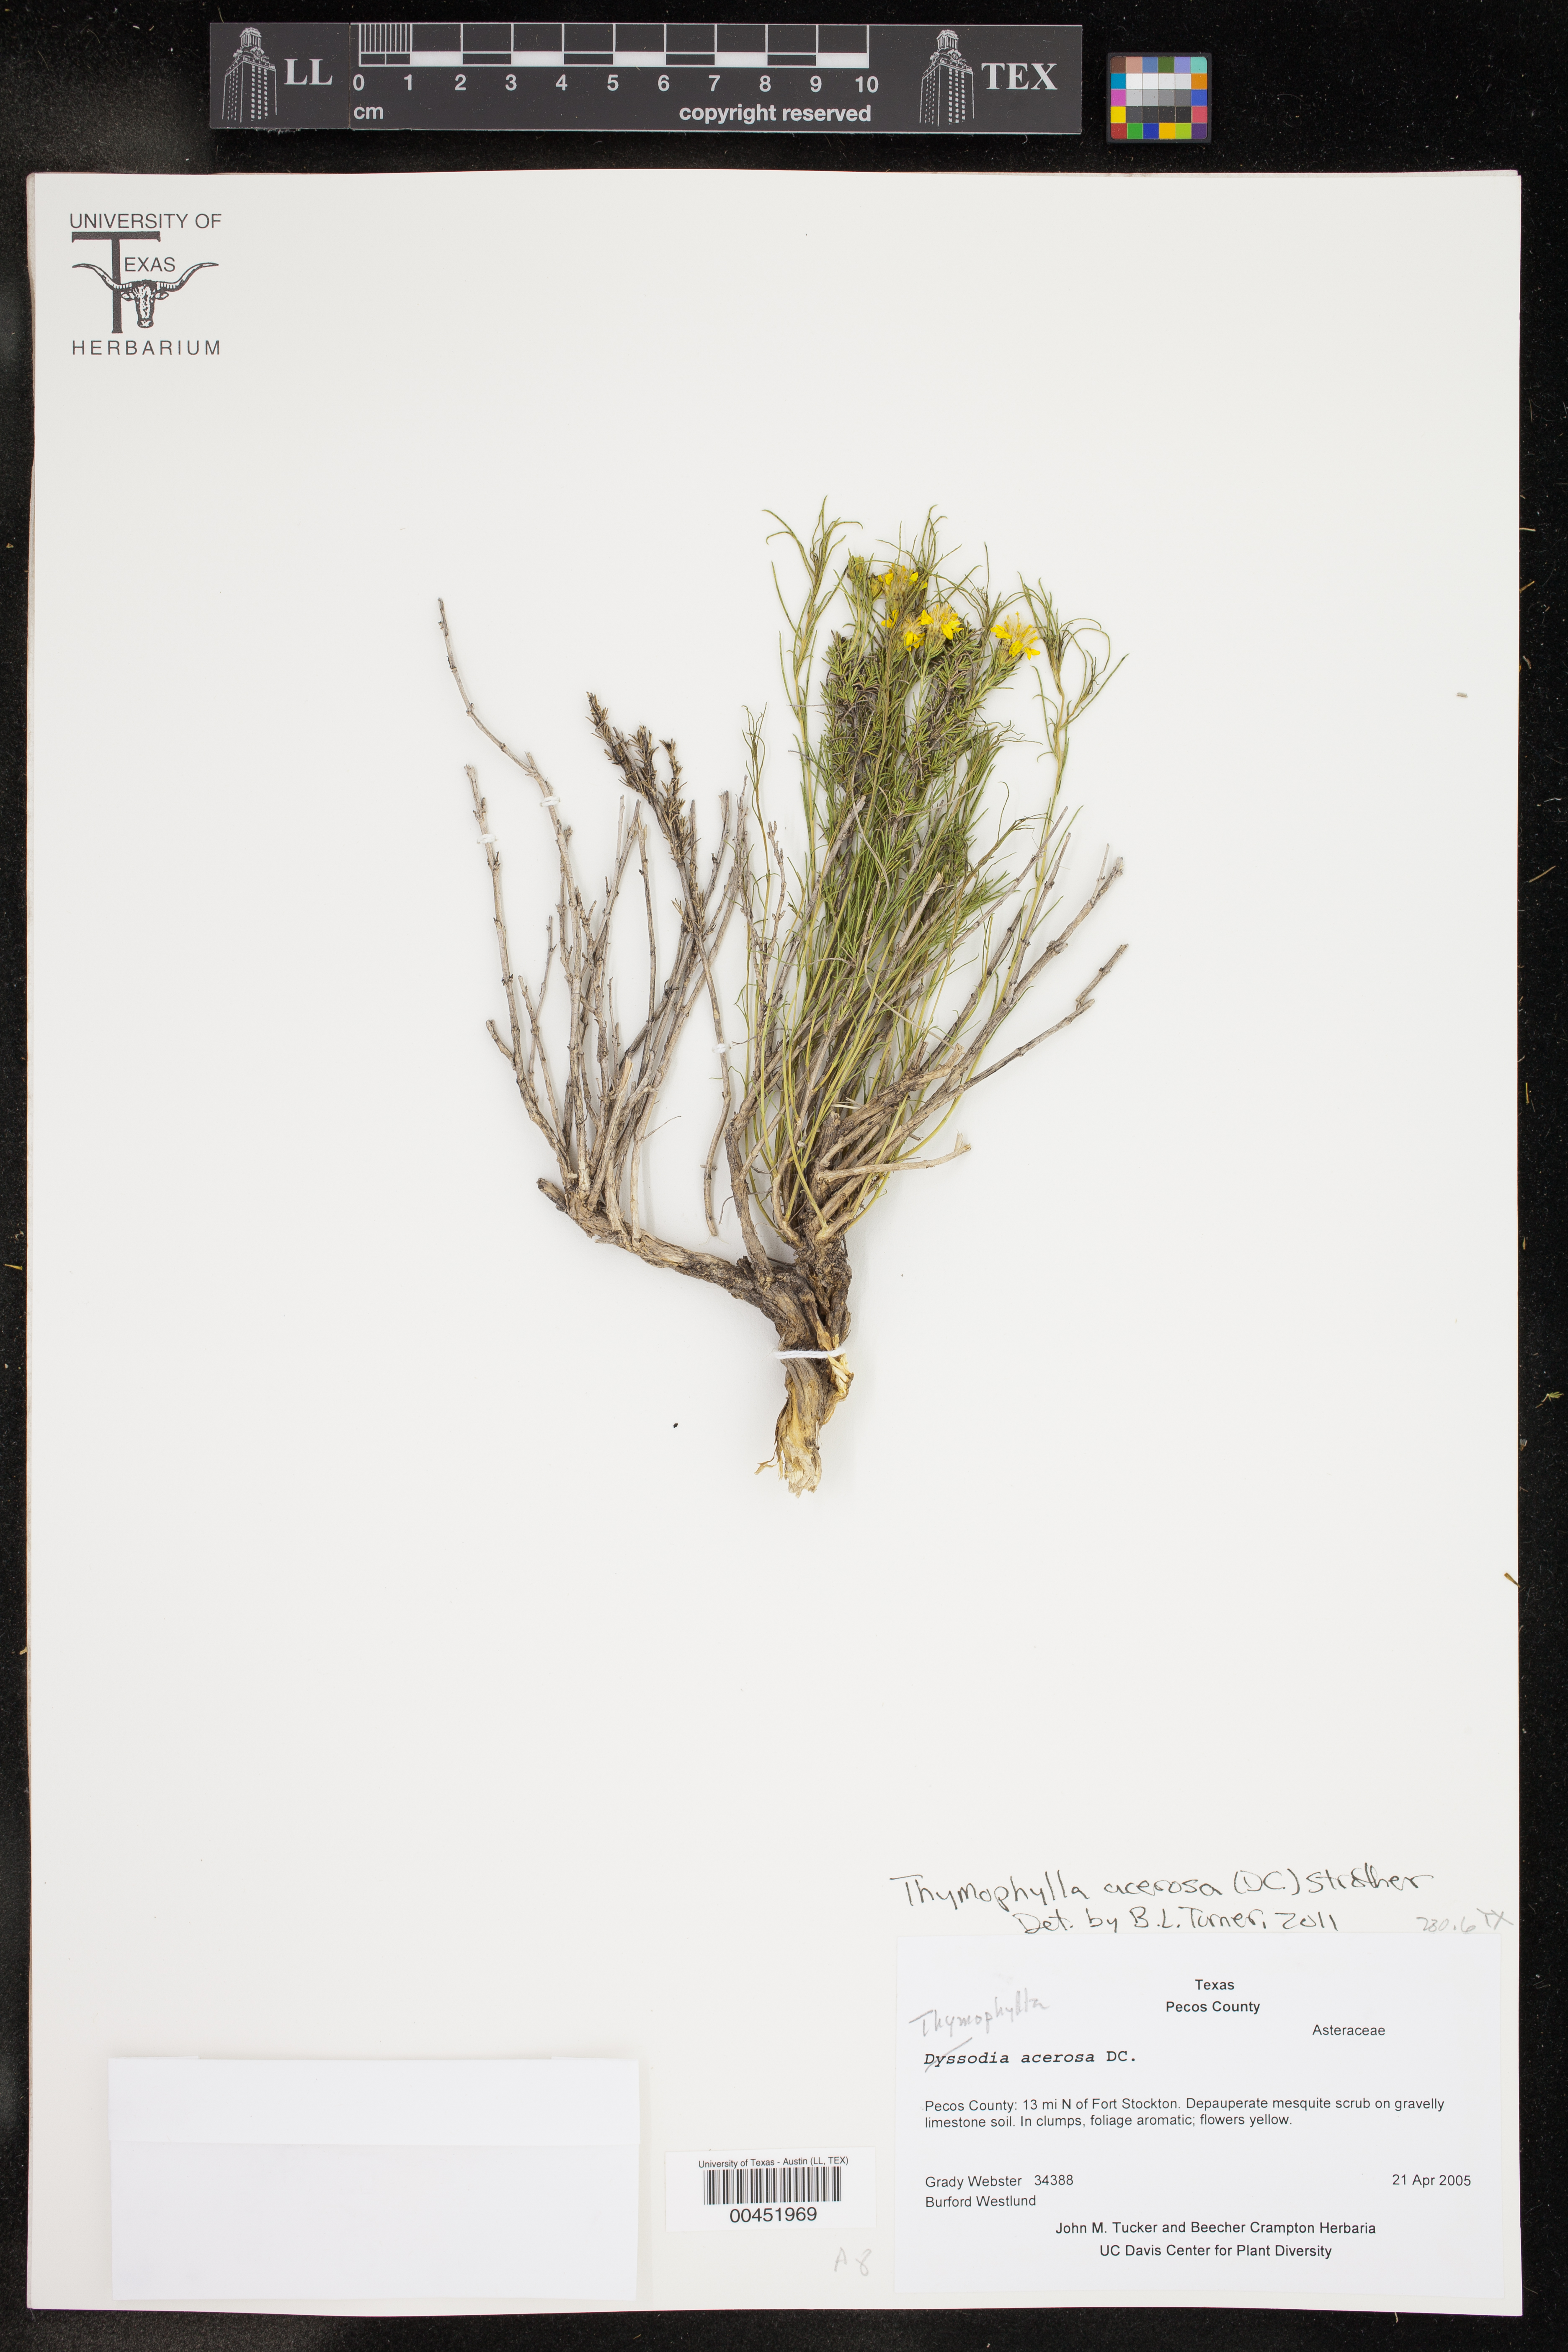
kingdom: Plantae
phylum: Tracheophyta
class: Magnoliopsida
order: Asterales
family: Asteraceae
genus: Thymophylla
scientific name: Thymophylla acerosa
